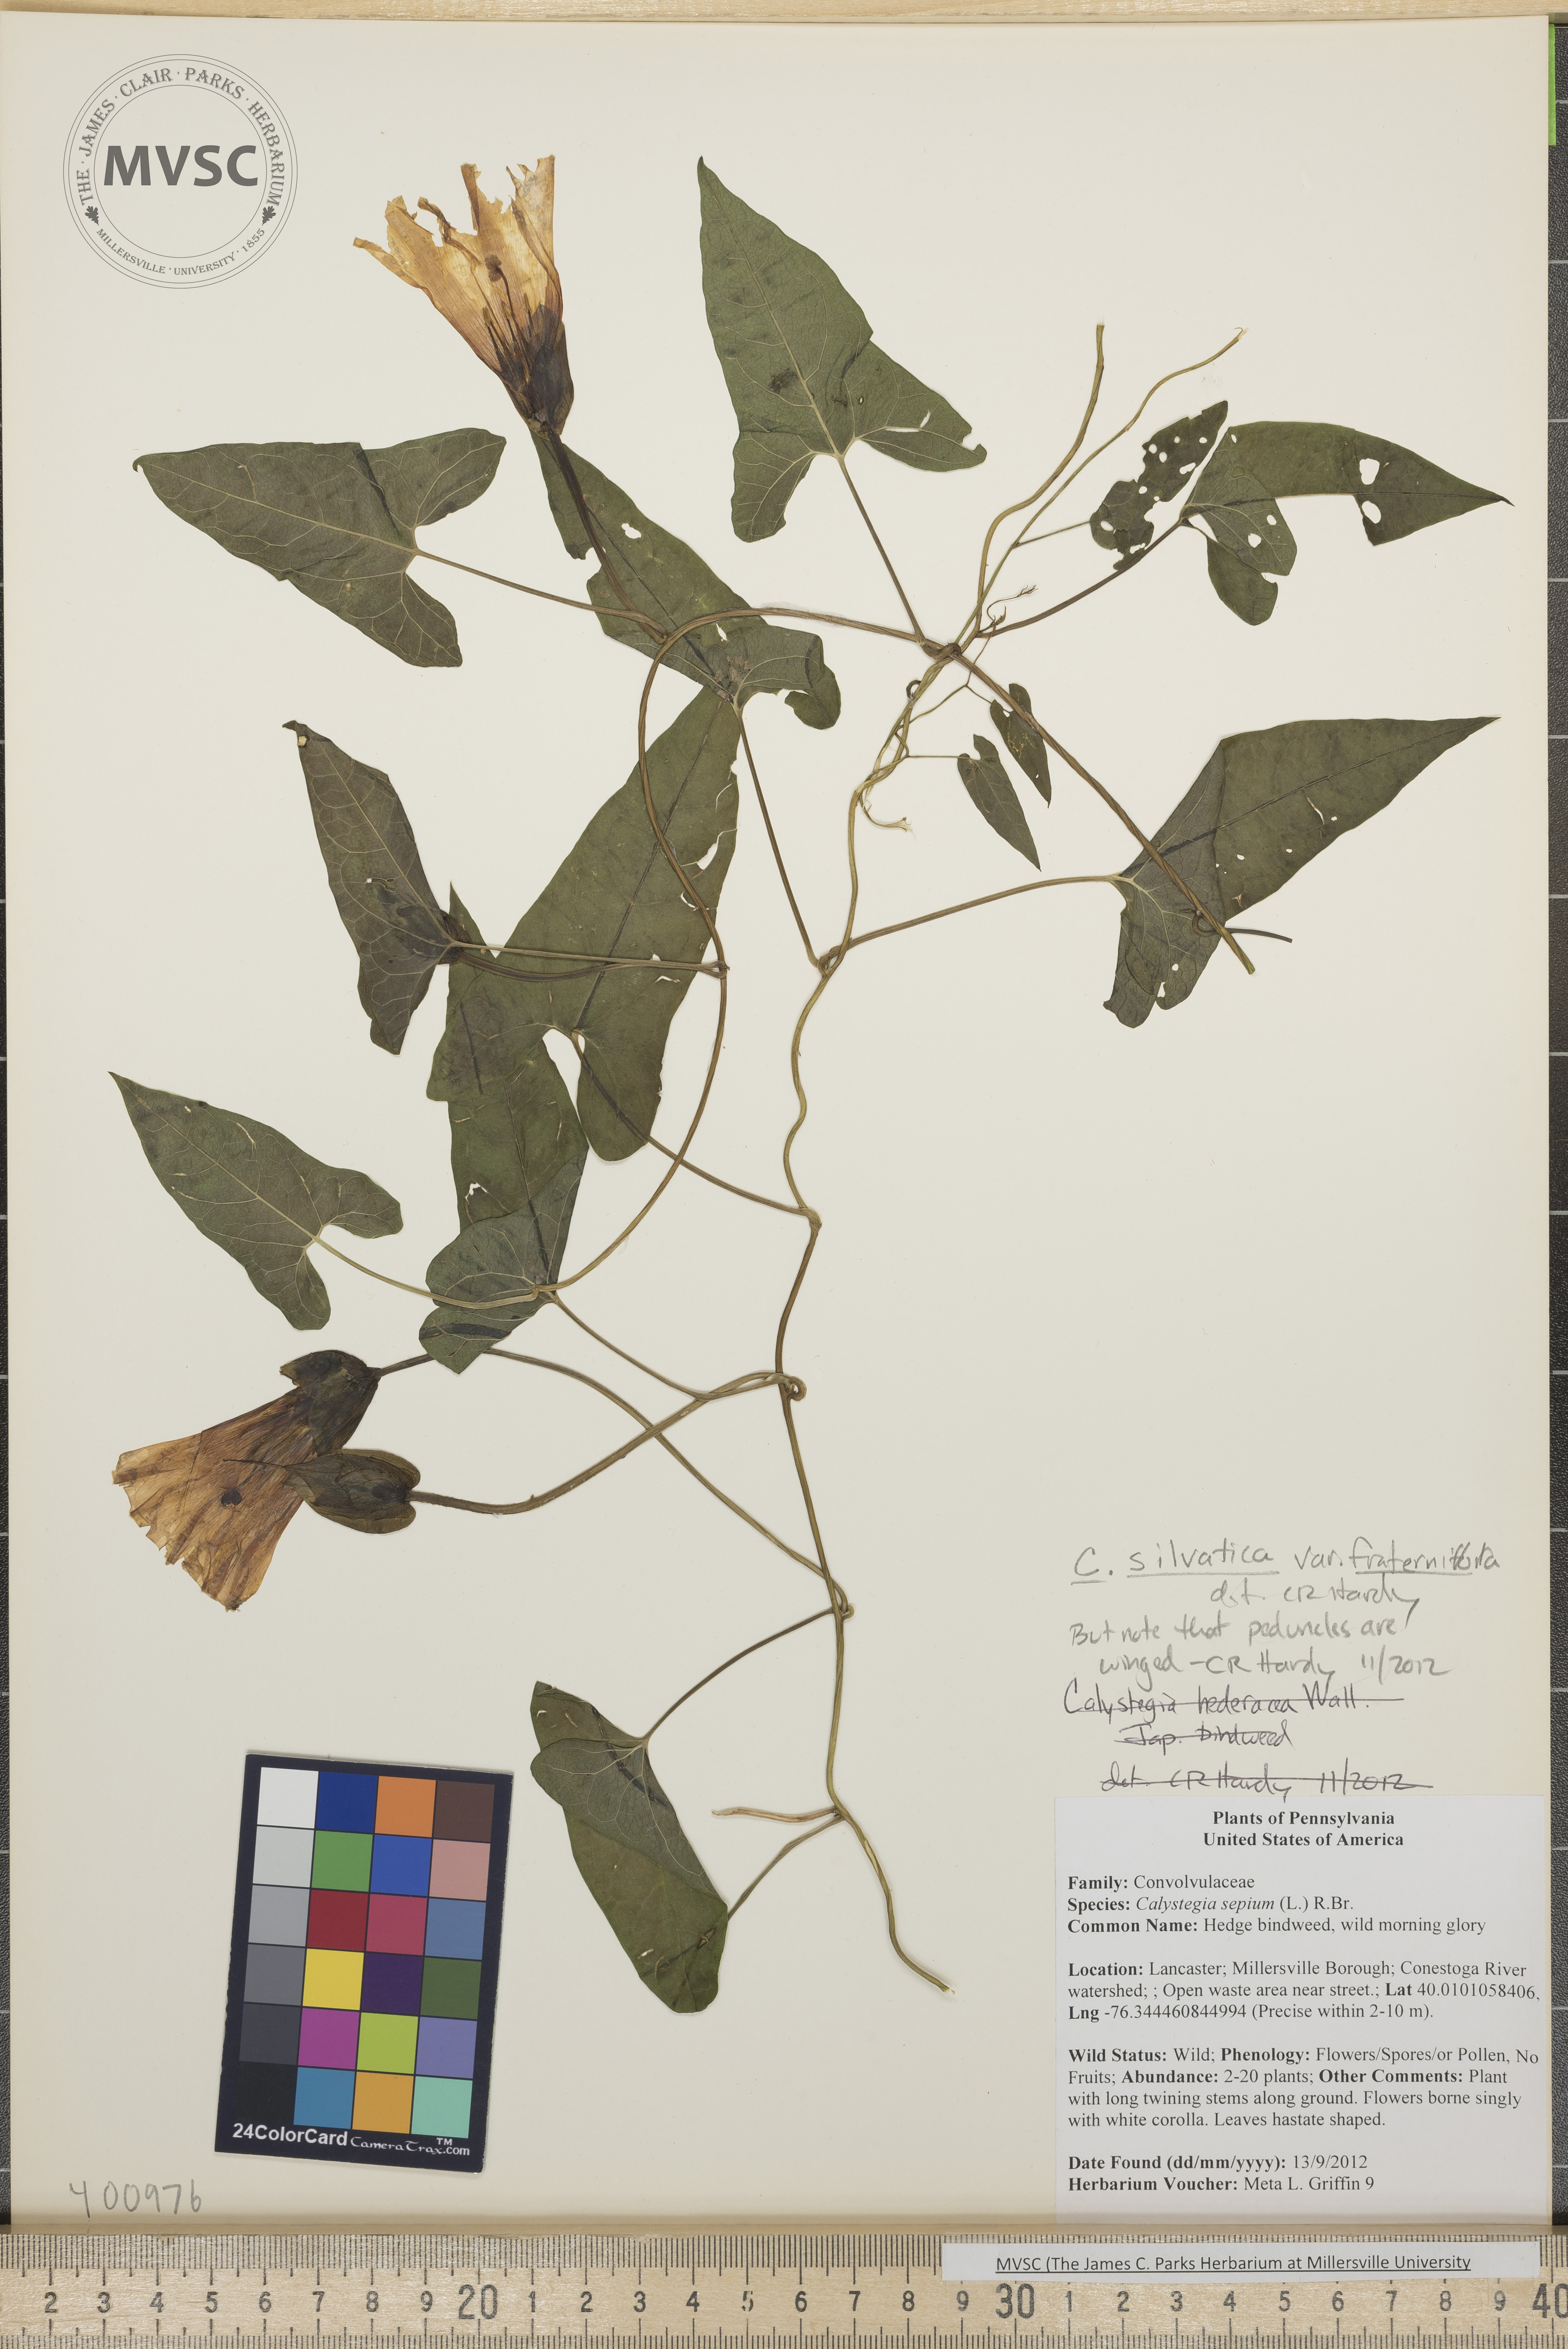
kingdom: Plantae
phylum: Tracheophyta
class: Magnoliopsida
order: Solanales
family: Convolvulaceae
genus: Calystegia
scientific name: Calystegia silvatica
